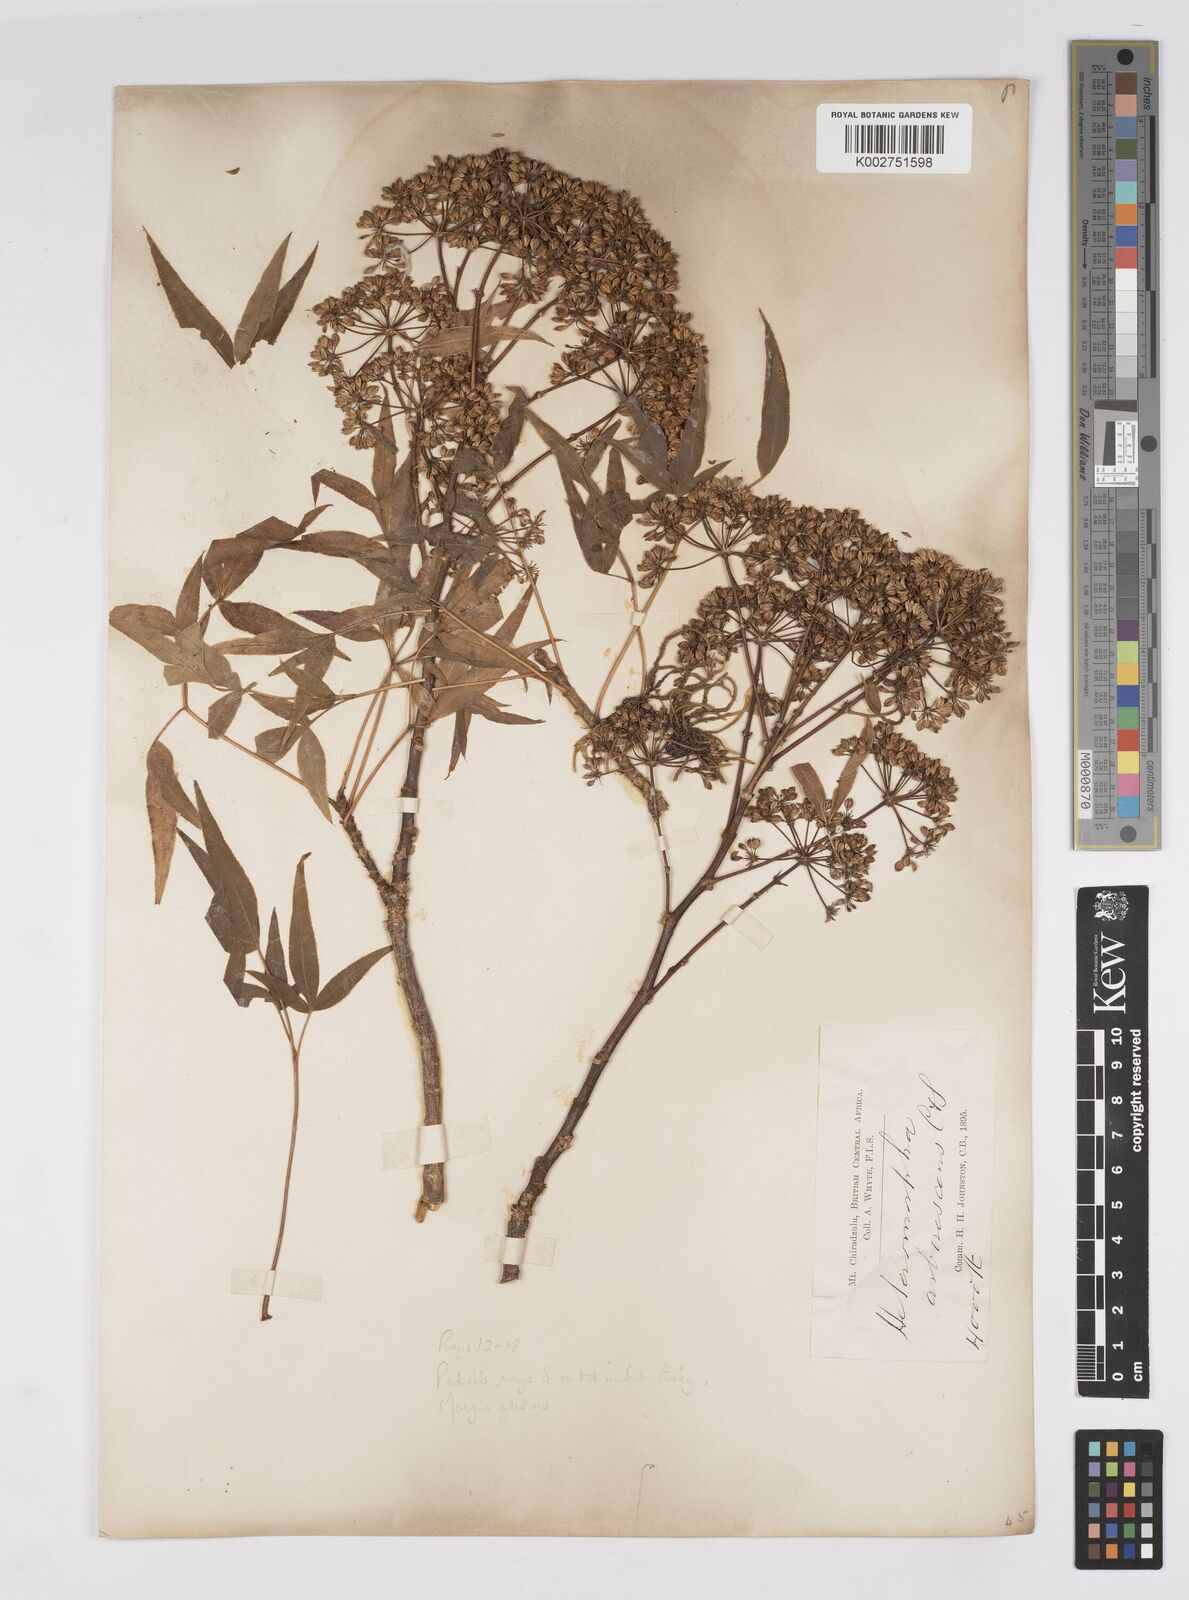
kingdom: Plantae
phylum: Tracheophyta
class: Magnoliopsida
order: Apiales
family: Apiaceae
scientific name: Apiaceae
